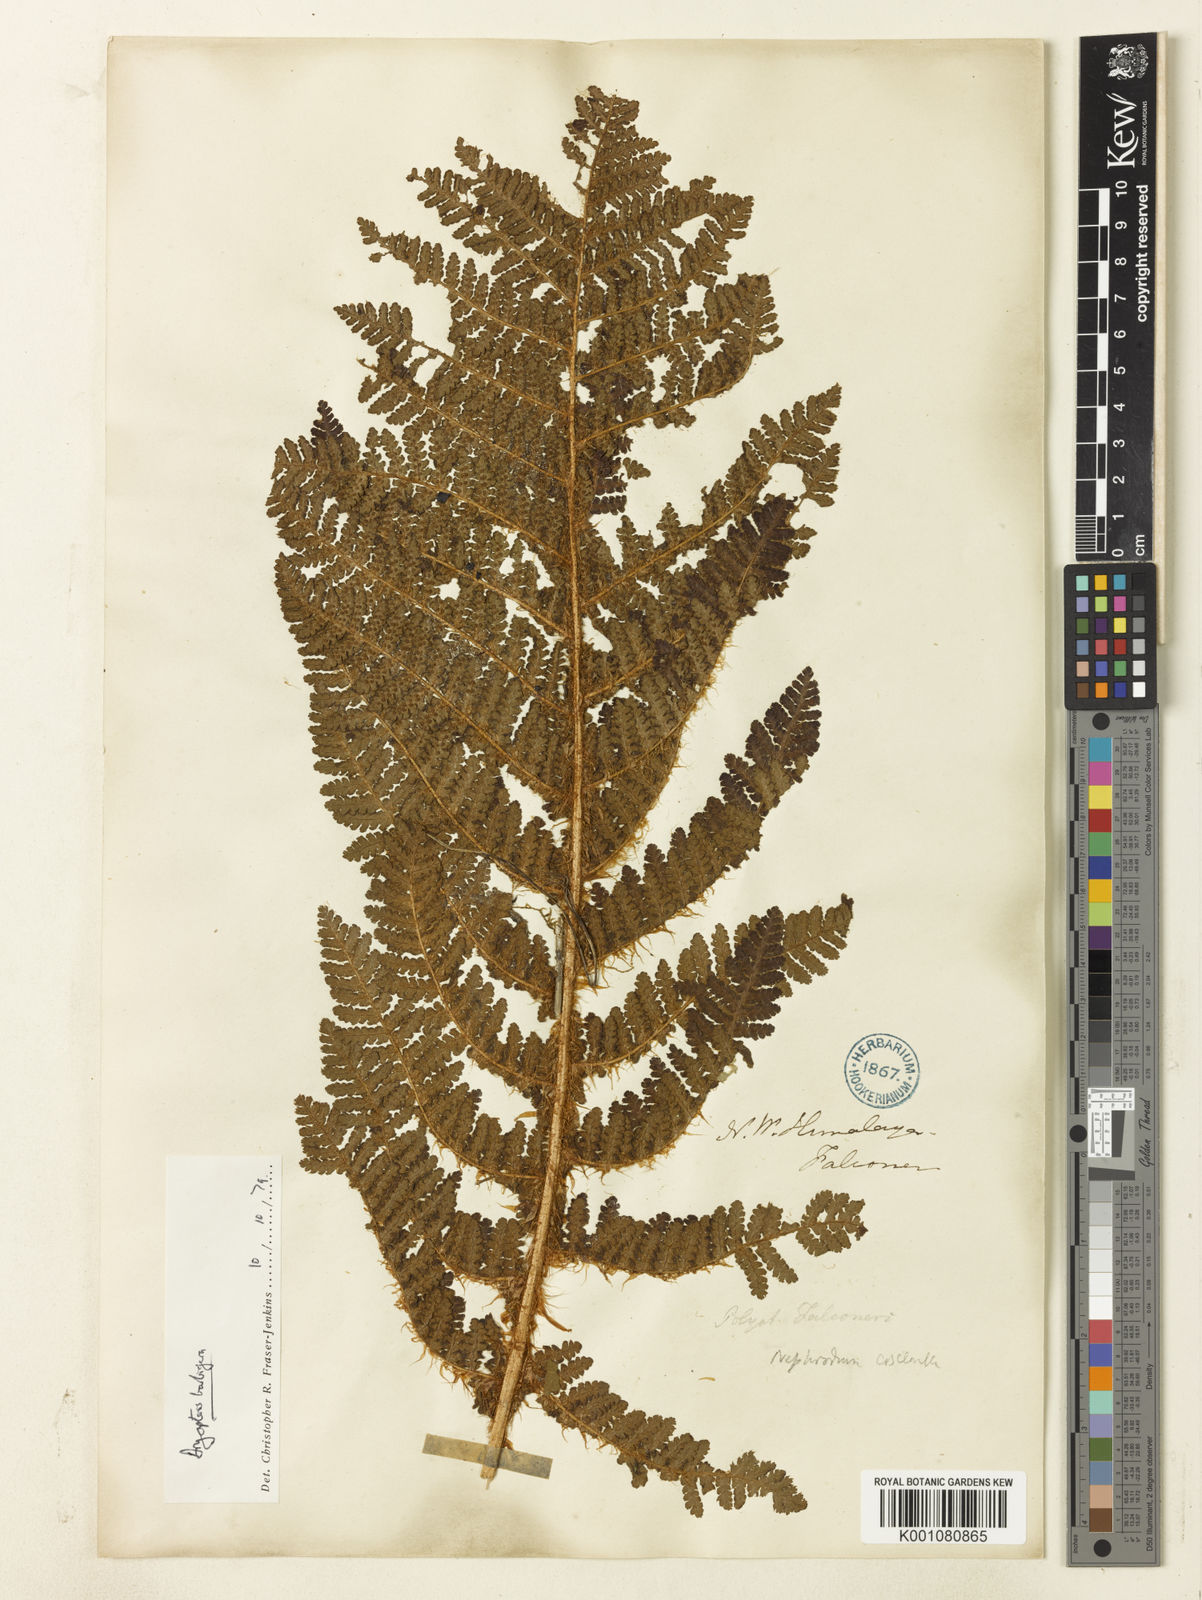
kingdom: Plantae
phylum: Tracheophyta
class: Polypodiopsida
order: Polypodiales
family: Dryopteridaceae
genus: Dryopteris
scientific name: Dryopteris barbigera
